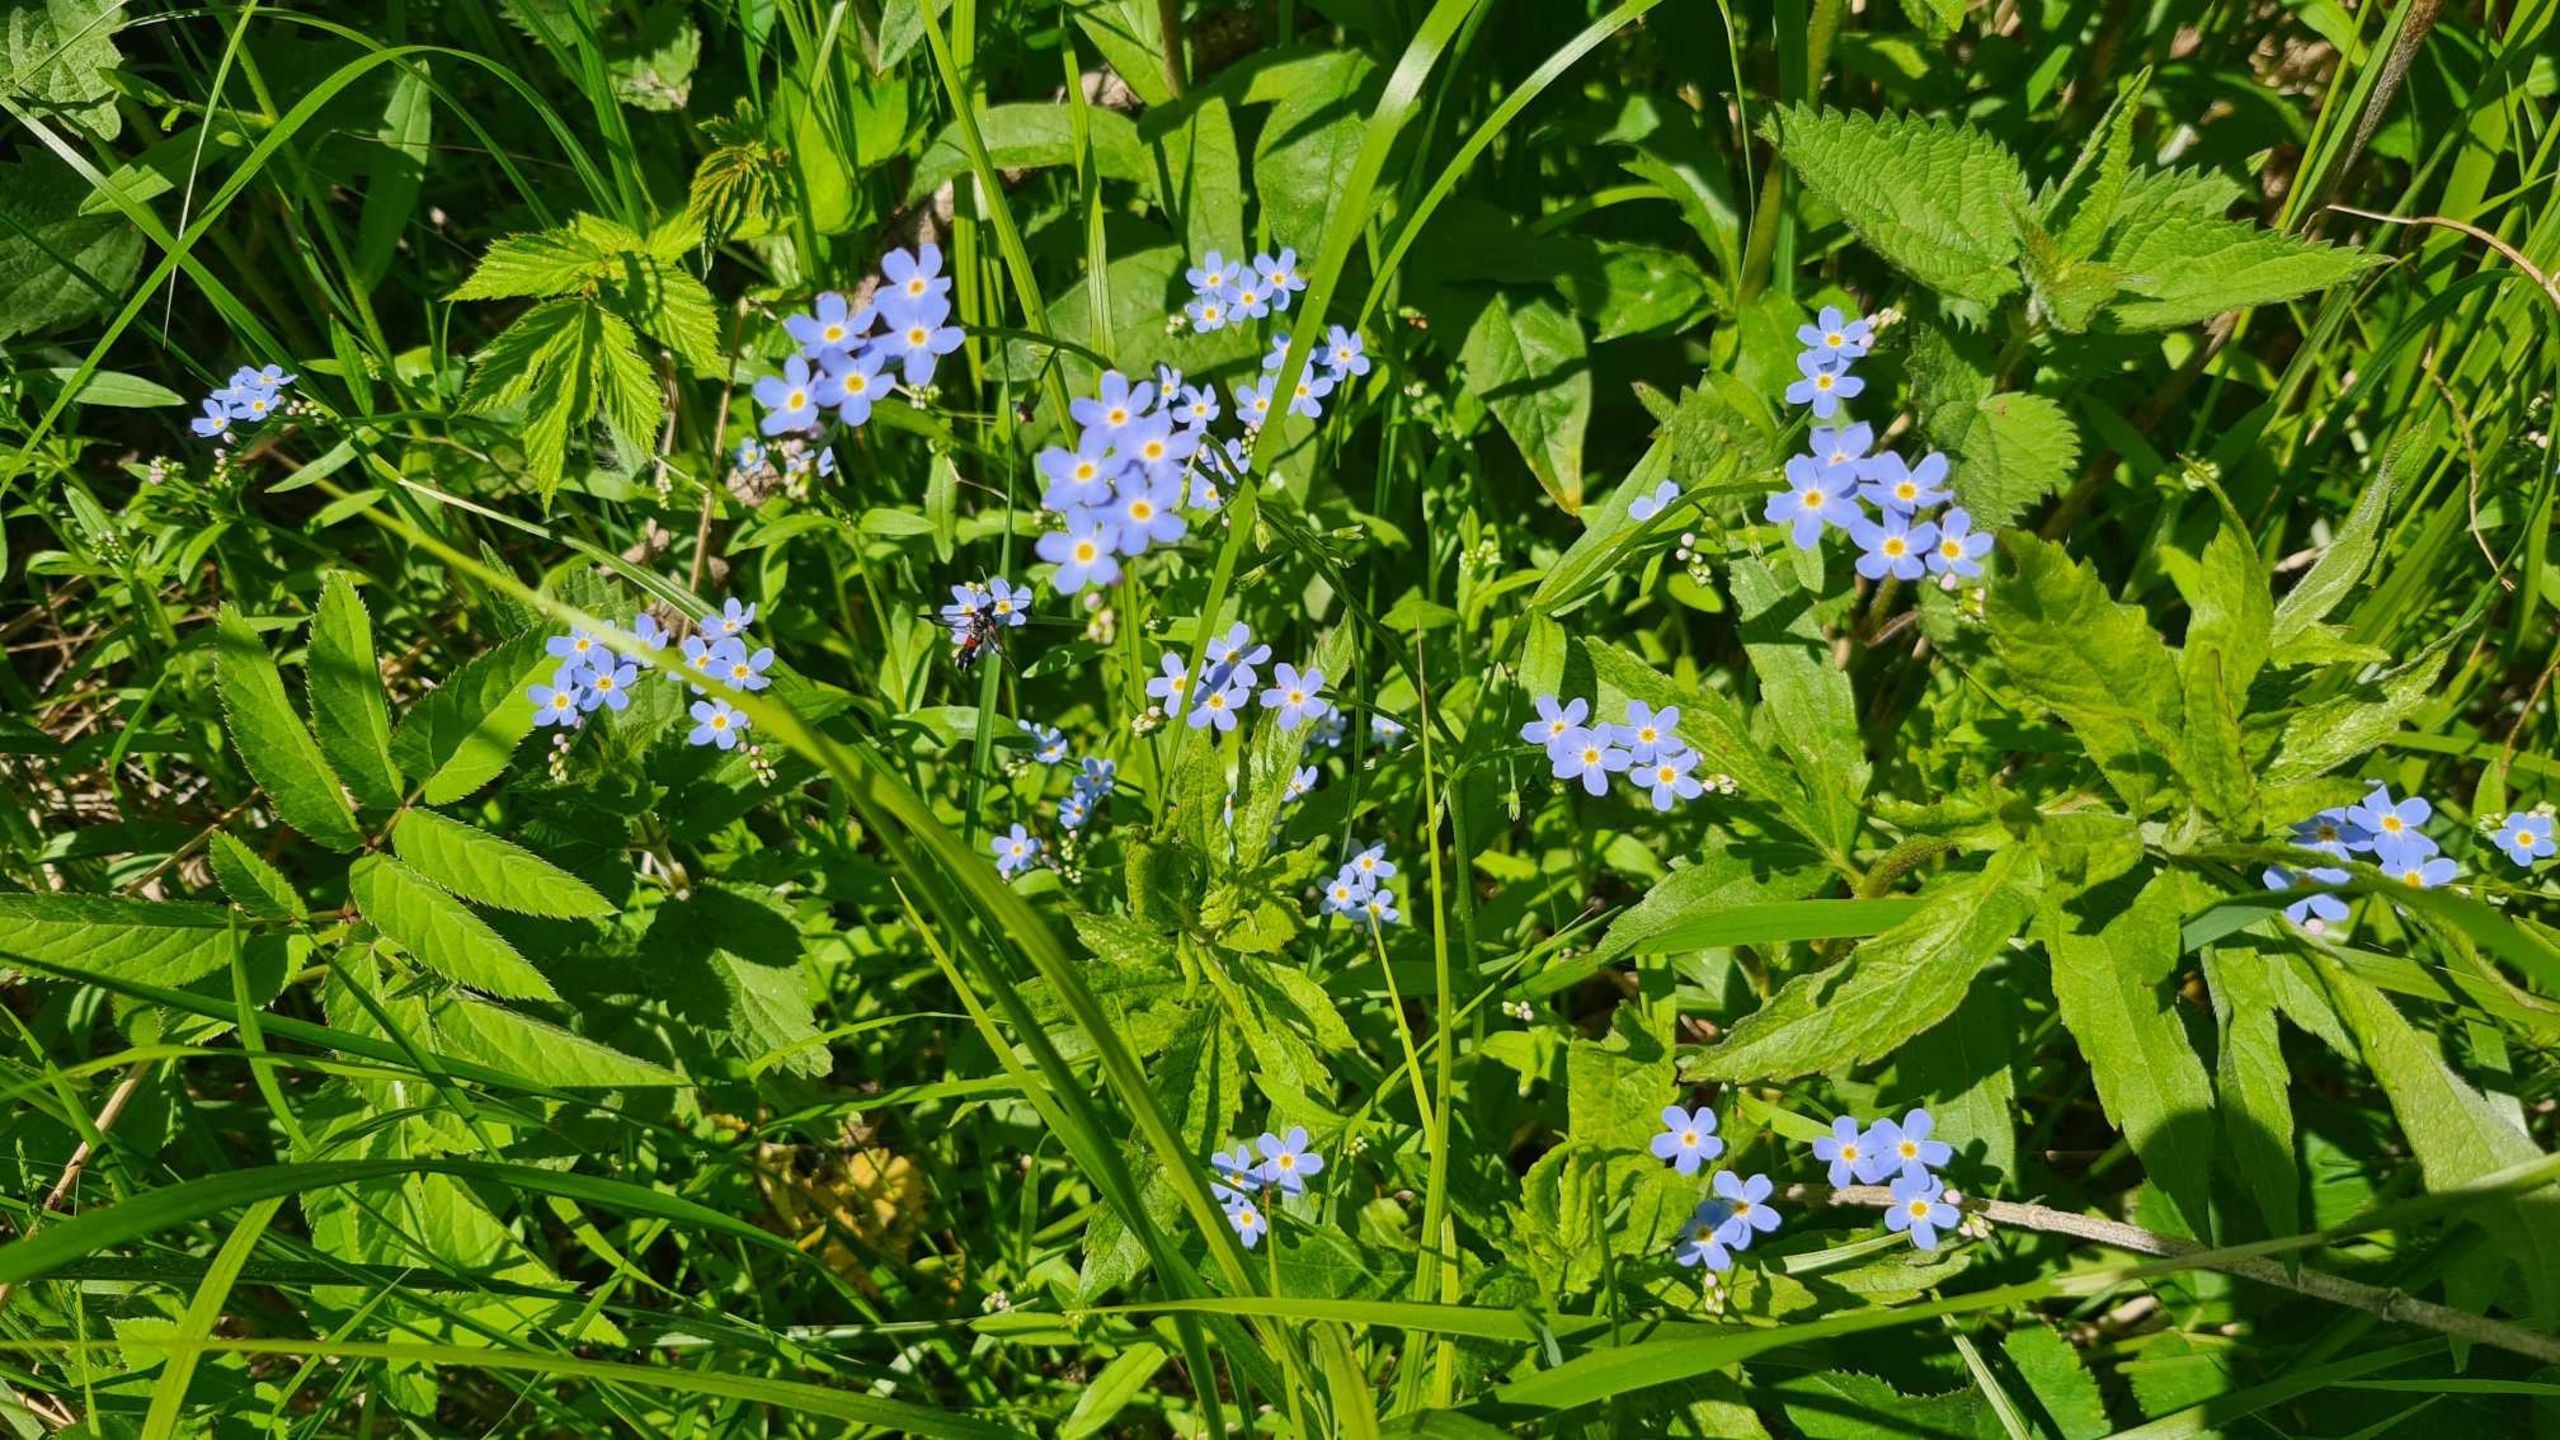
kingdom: Plantae
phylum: Tracheophyta
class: Magnoliopsida
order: Boraginales
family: Boraginaceae
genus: Myosotis
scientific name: Myosotis scorpioides
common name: Eng-forglemmigej
